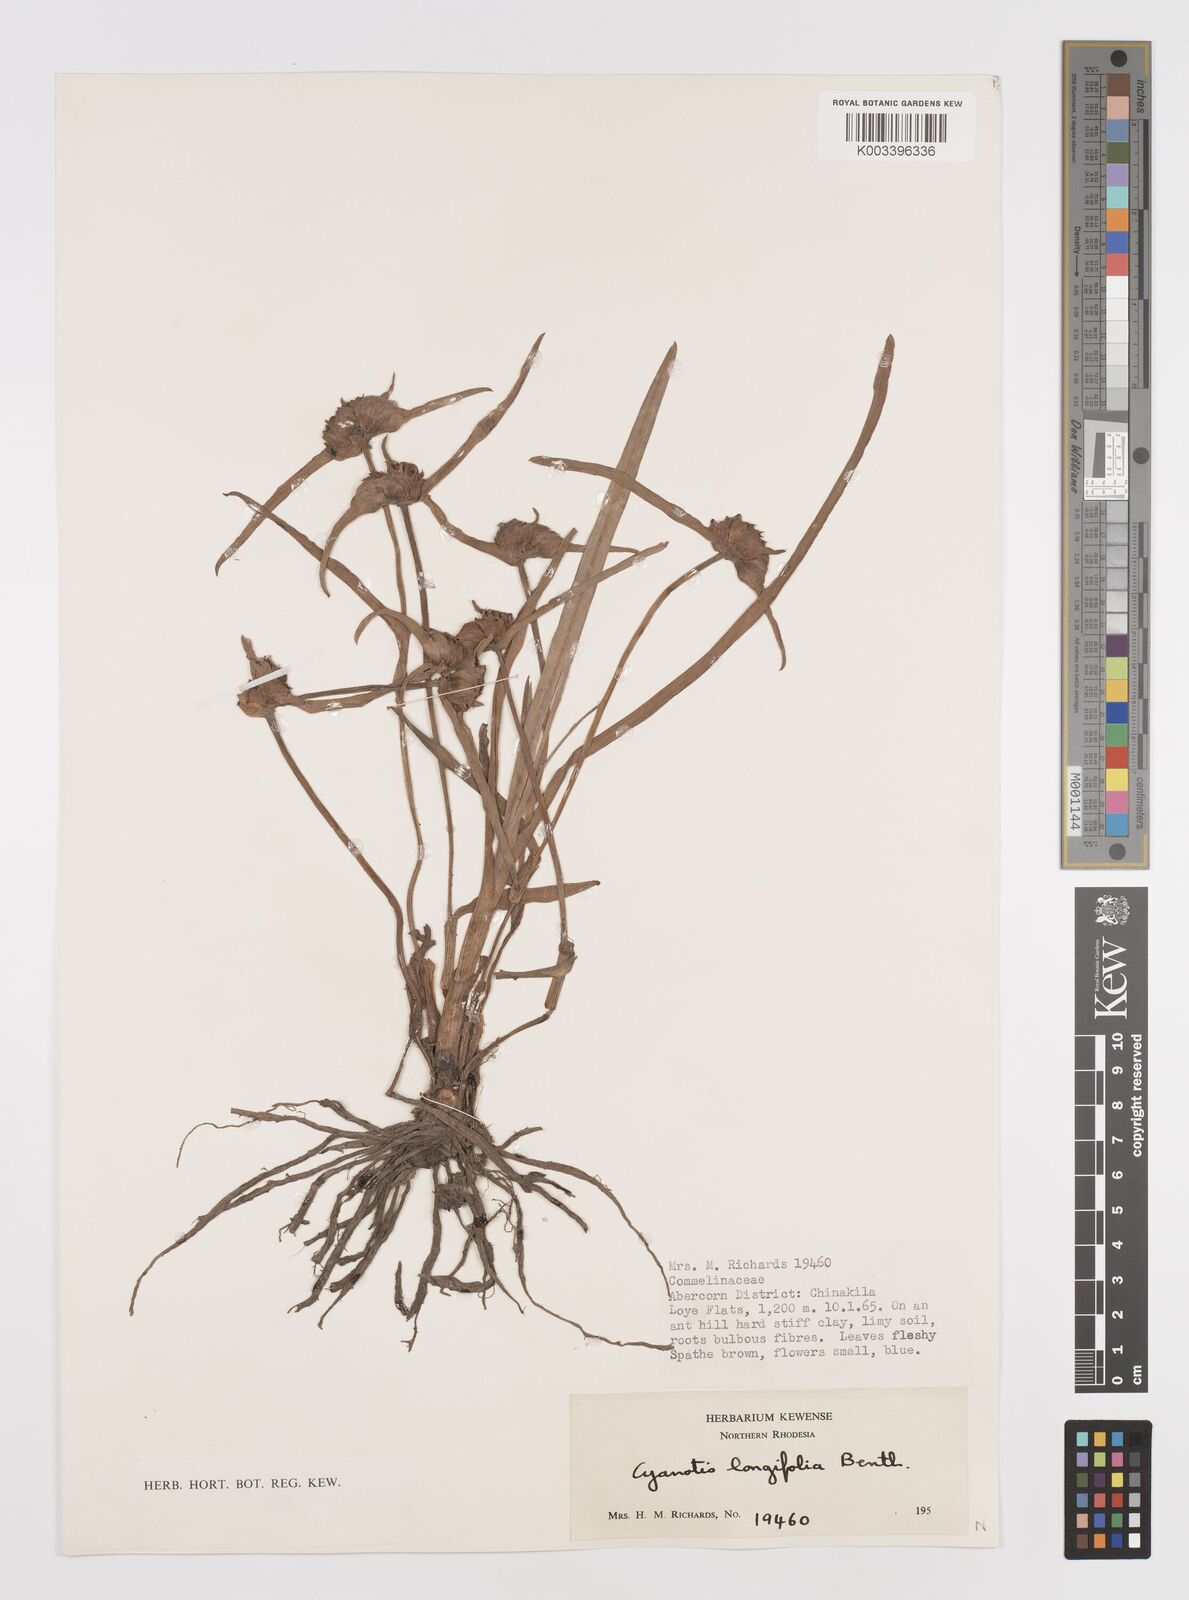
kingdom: Plantae
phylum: Tracheophyta
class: Liliopsida
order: Commelinales
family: Commelinaceae
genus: Cyanotis
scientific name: Cyanotis longifolia
